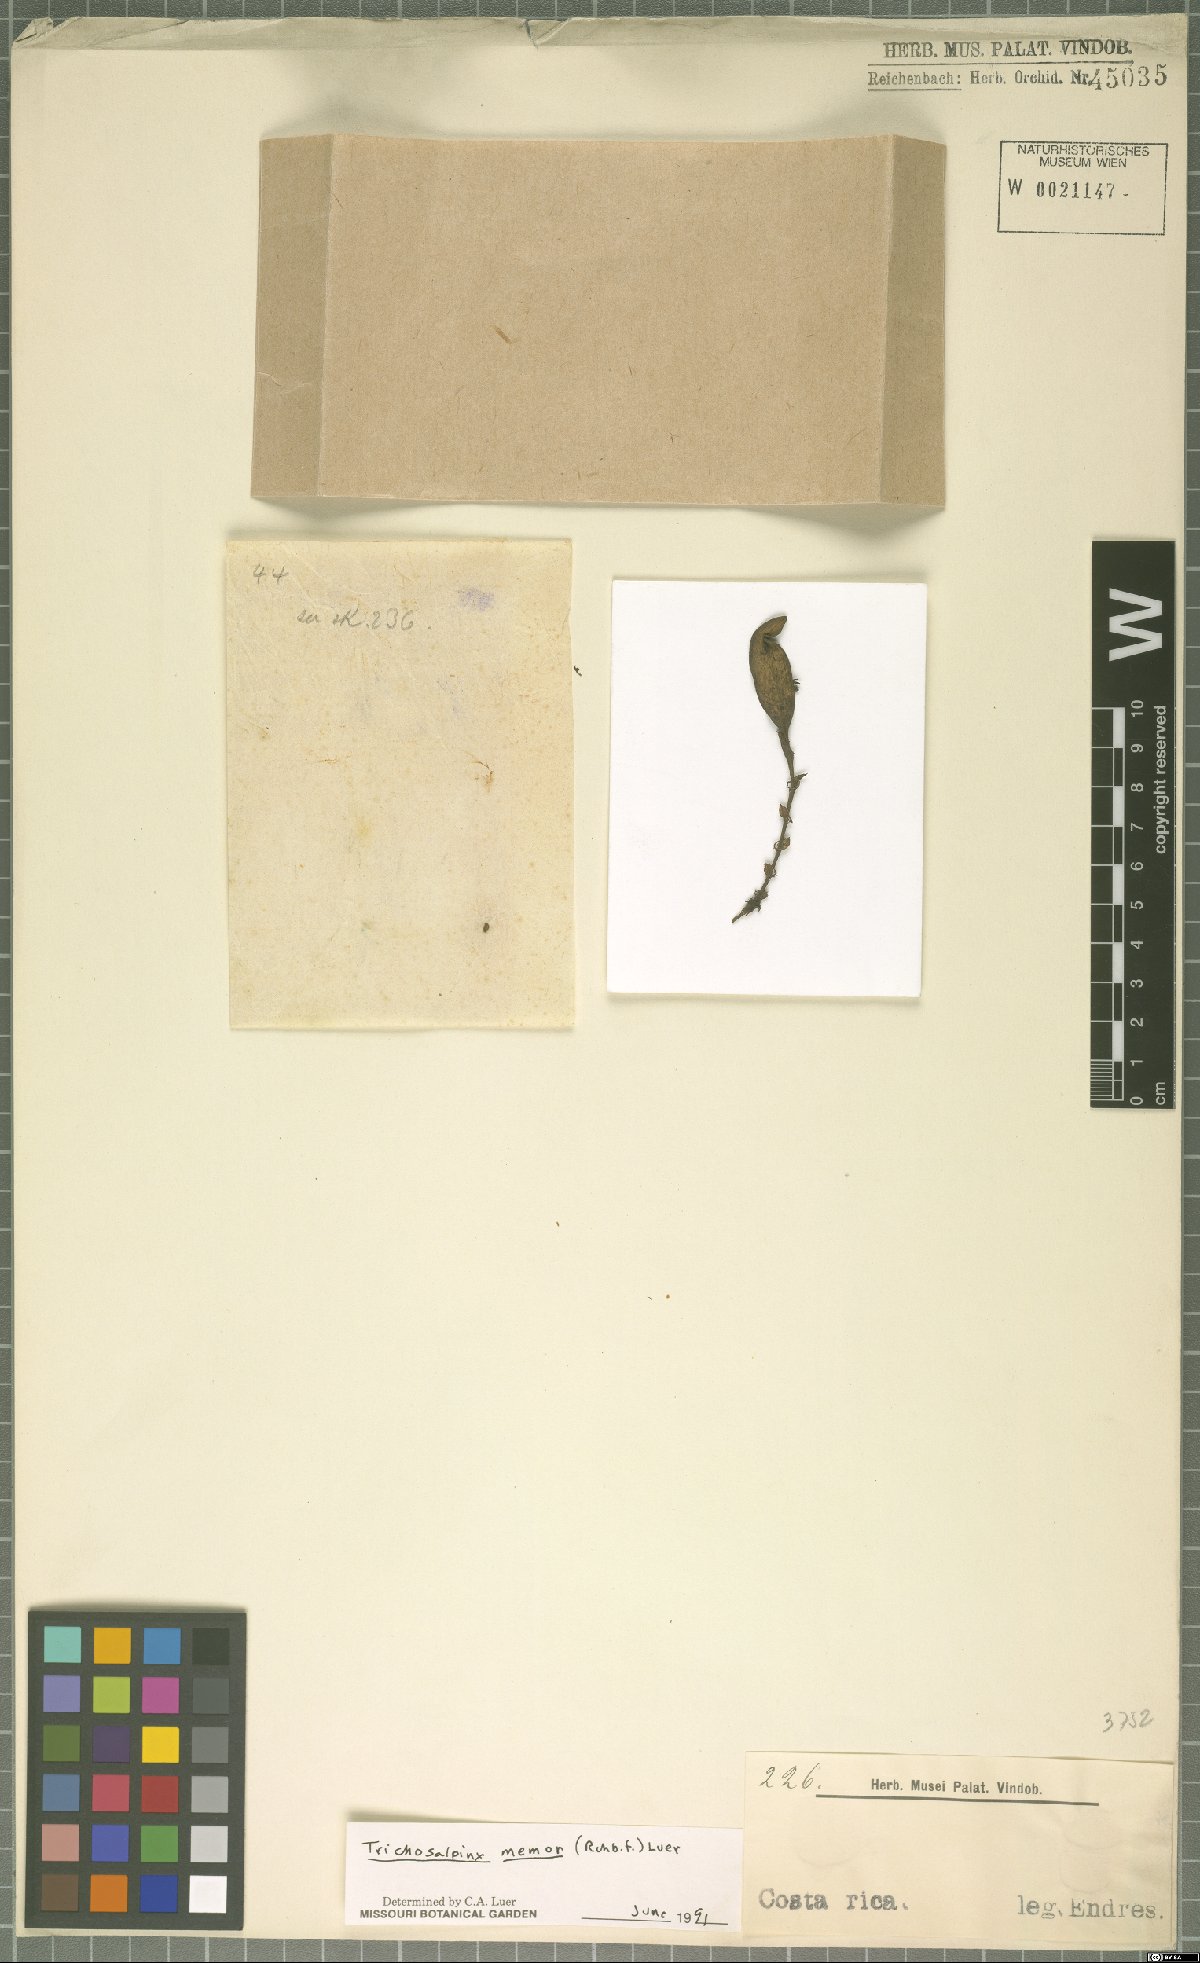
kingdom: Plantae
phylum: Tracheophyta
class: Liliopsida
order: Asparagales
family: Orchidaceae
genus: Trichosalpinx
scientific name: Trichosalpinx memor
